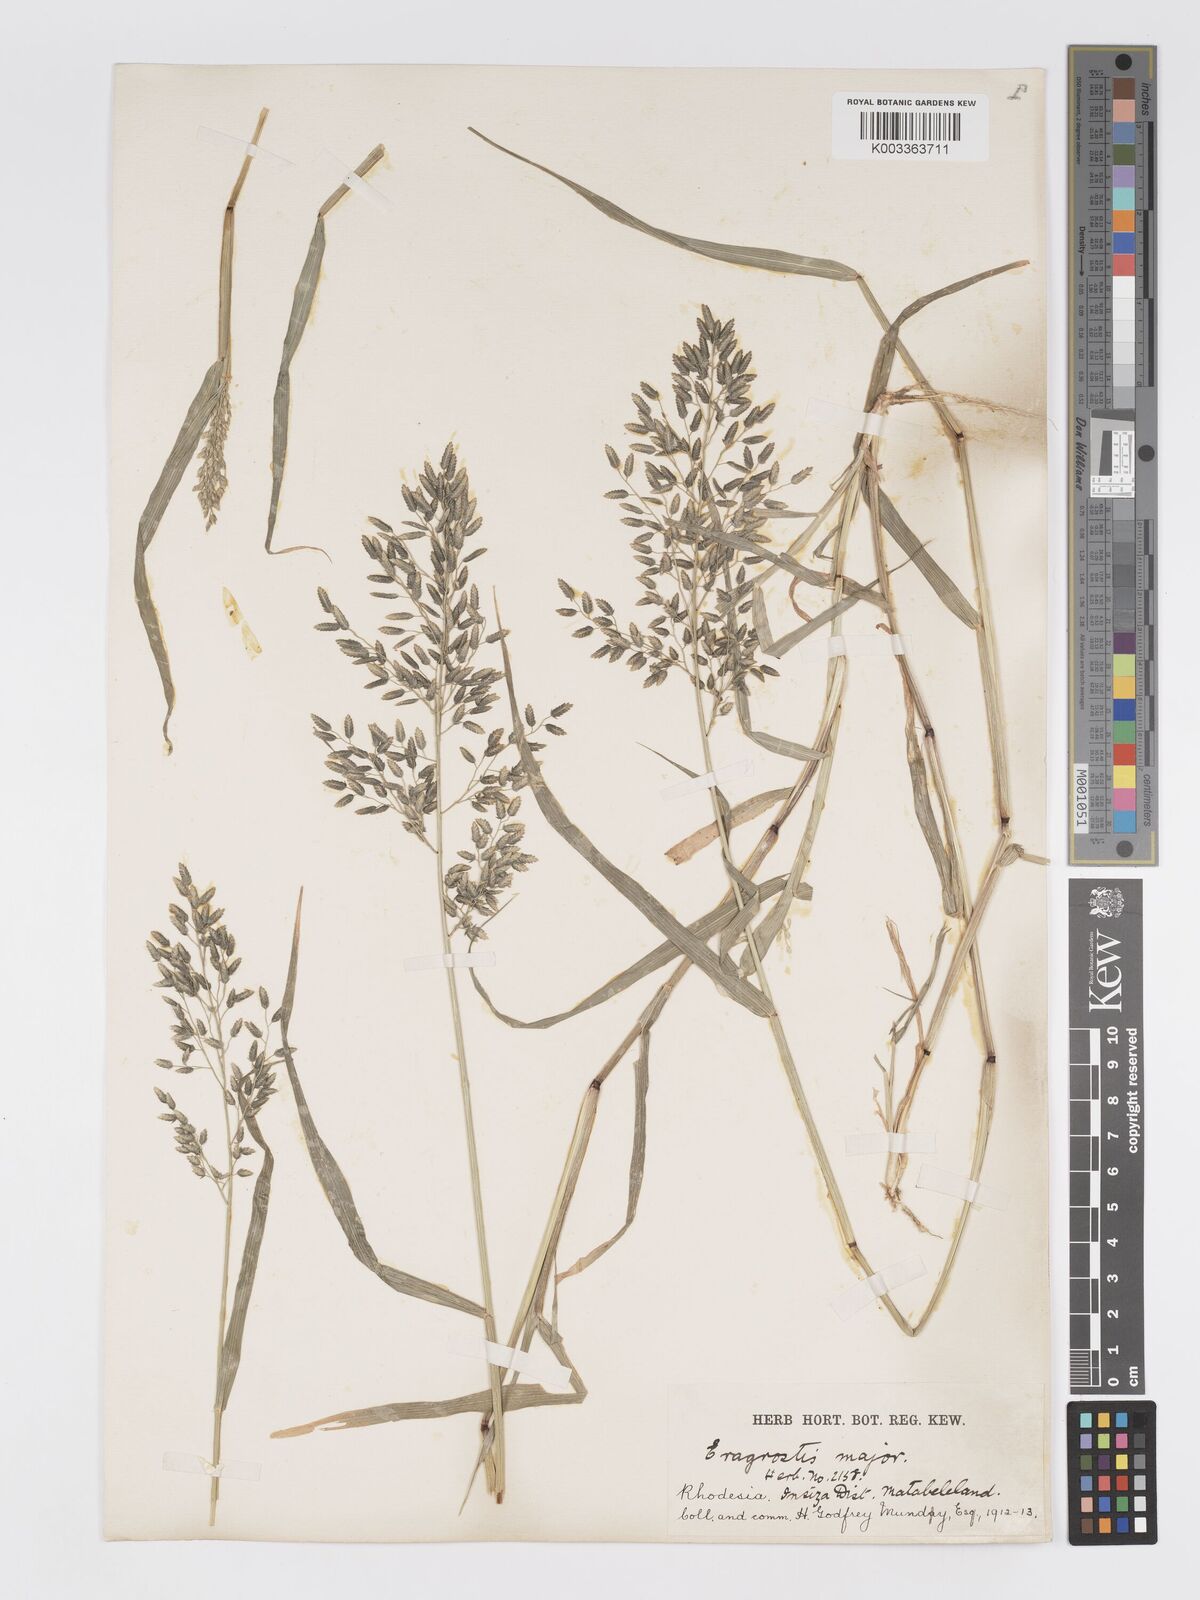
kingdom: Plantae
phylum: Tracheophyta
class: Liliopsida
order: Poales
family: Poaceae
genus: Eragrostis
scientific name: Eragrostis cilianensis
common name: Stinkgrass
